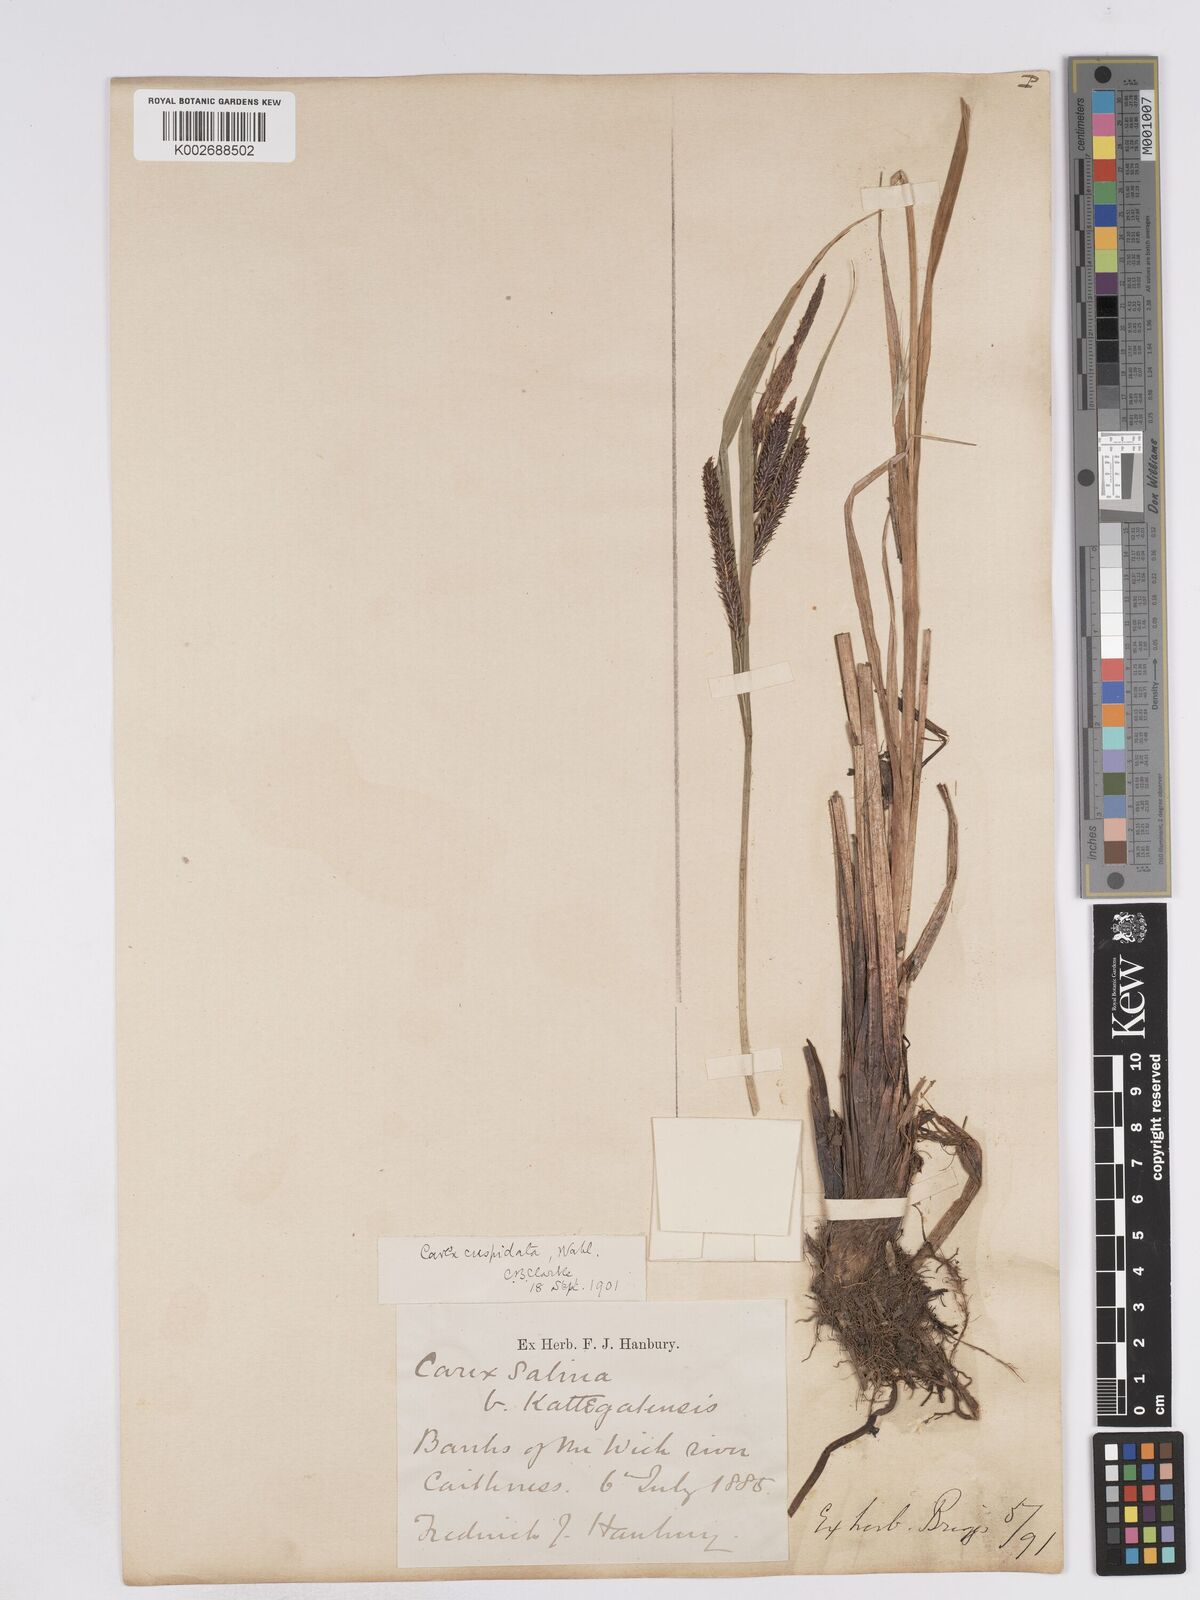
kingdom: Plantae
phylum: Tracheophyta
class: Liliopsida
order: Poales
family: Cyperaceae
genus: Carex
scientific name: Carex recta
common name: Estuarine sedge
